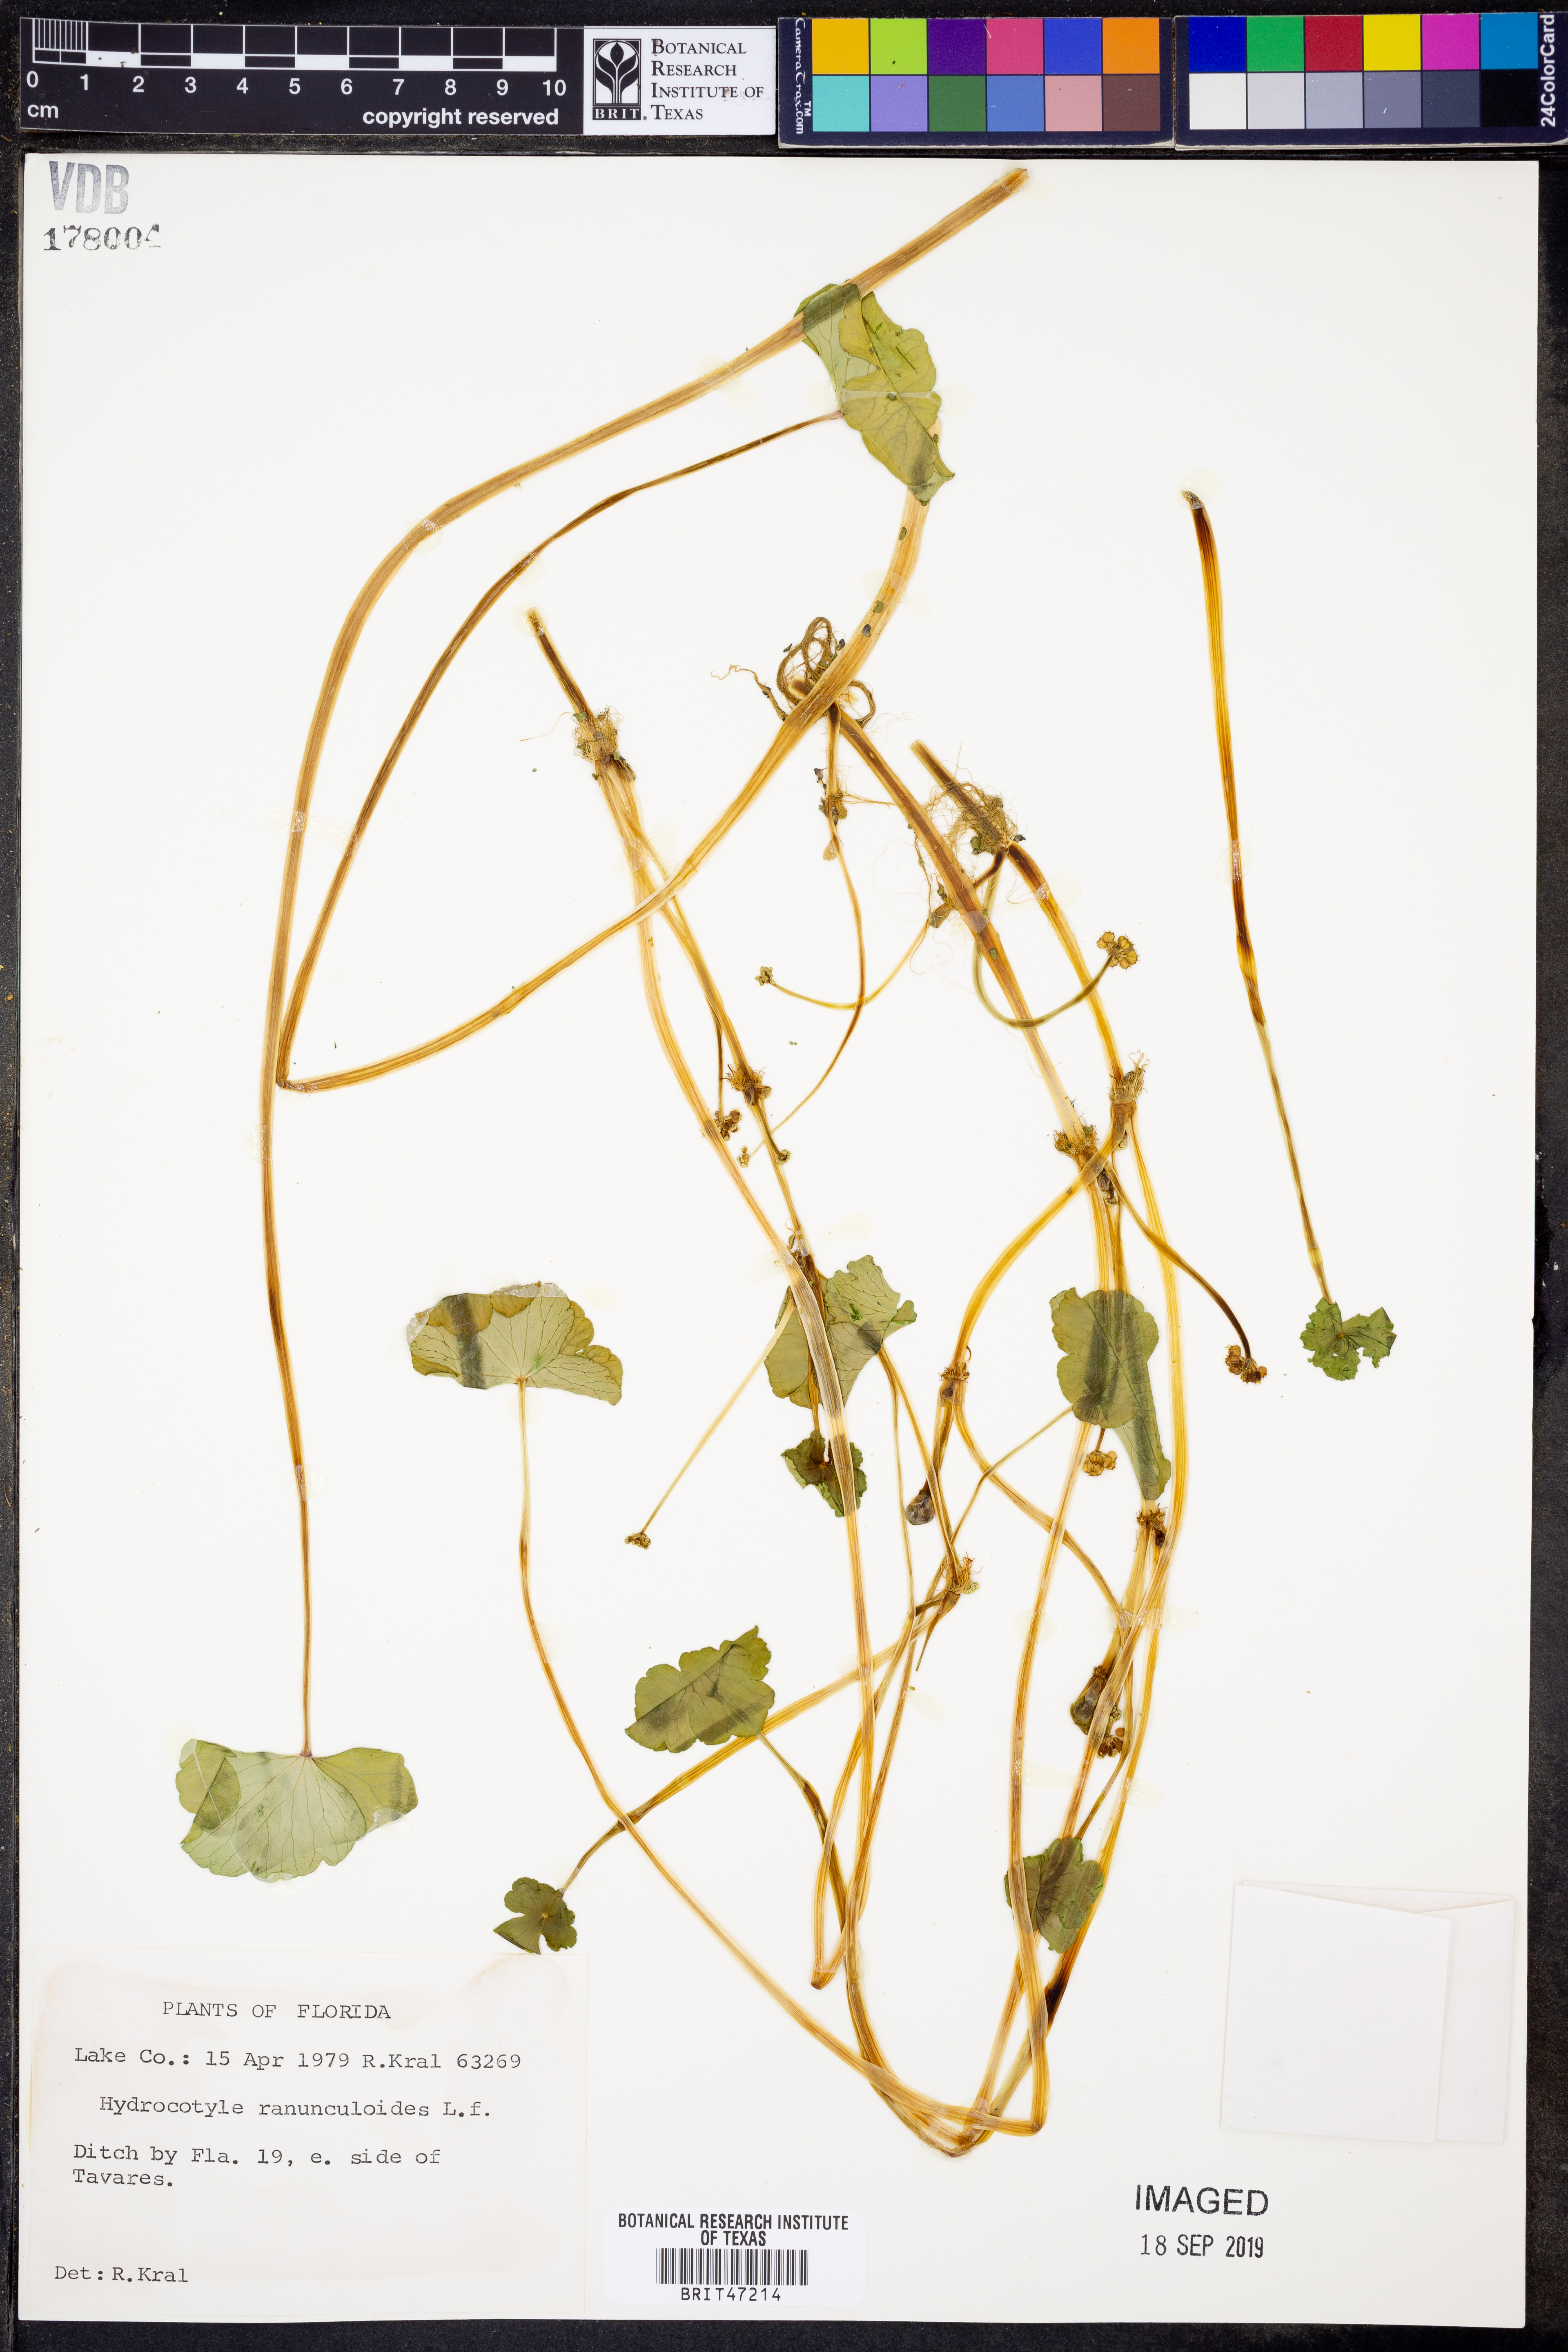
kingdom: Plantae
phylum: Tracheophyta
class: Magnoliopsida
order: Apiales
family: Araliaceae
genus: Hydrocotyle
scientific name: Hydrocotyle ranunculoides
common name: Floating pennywort
